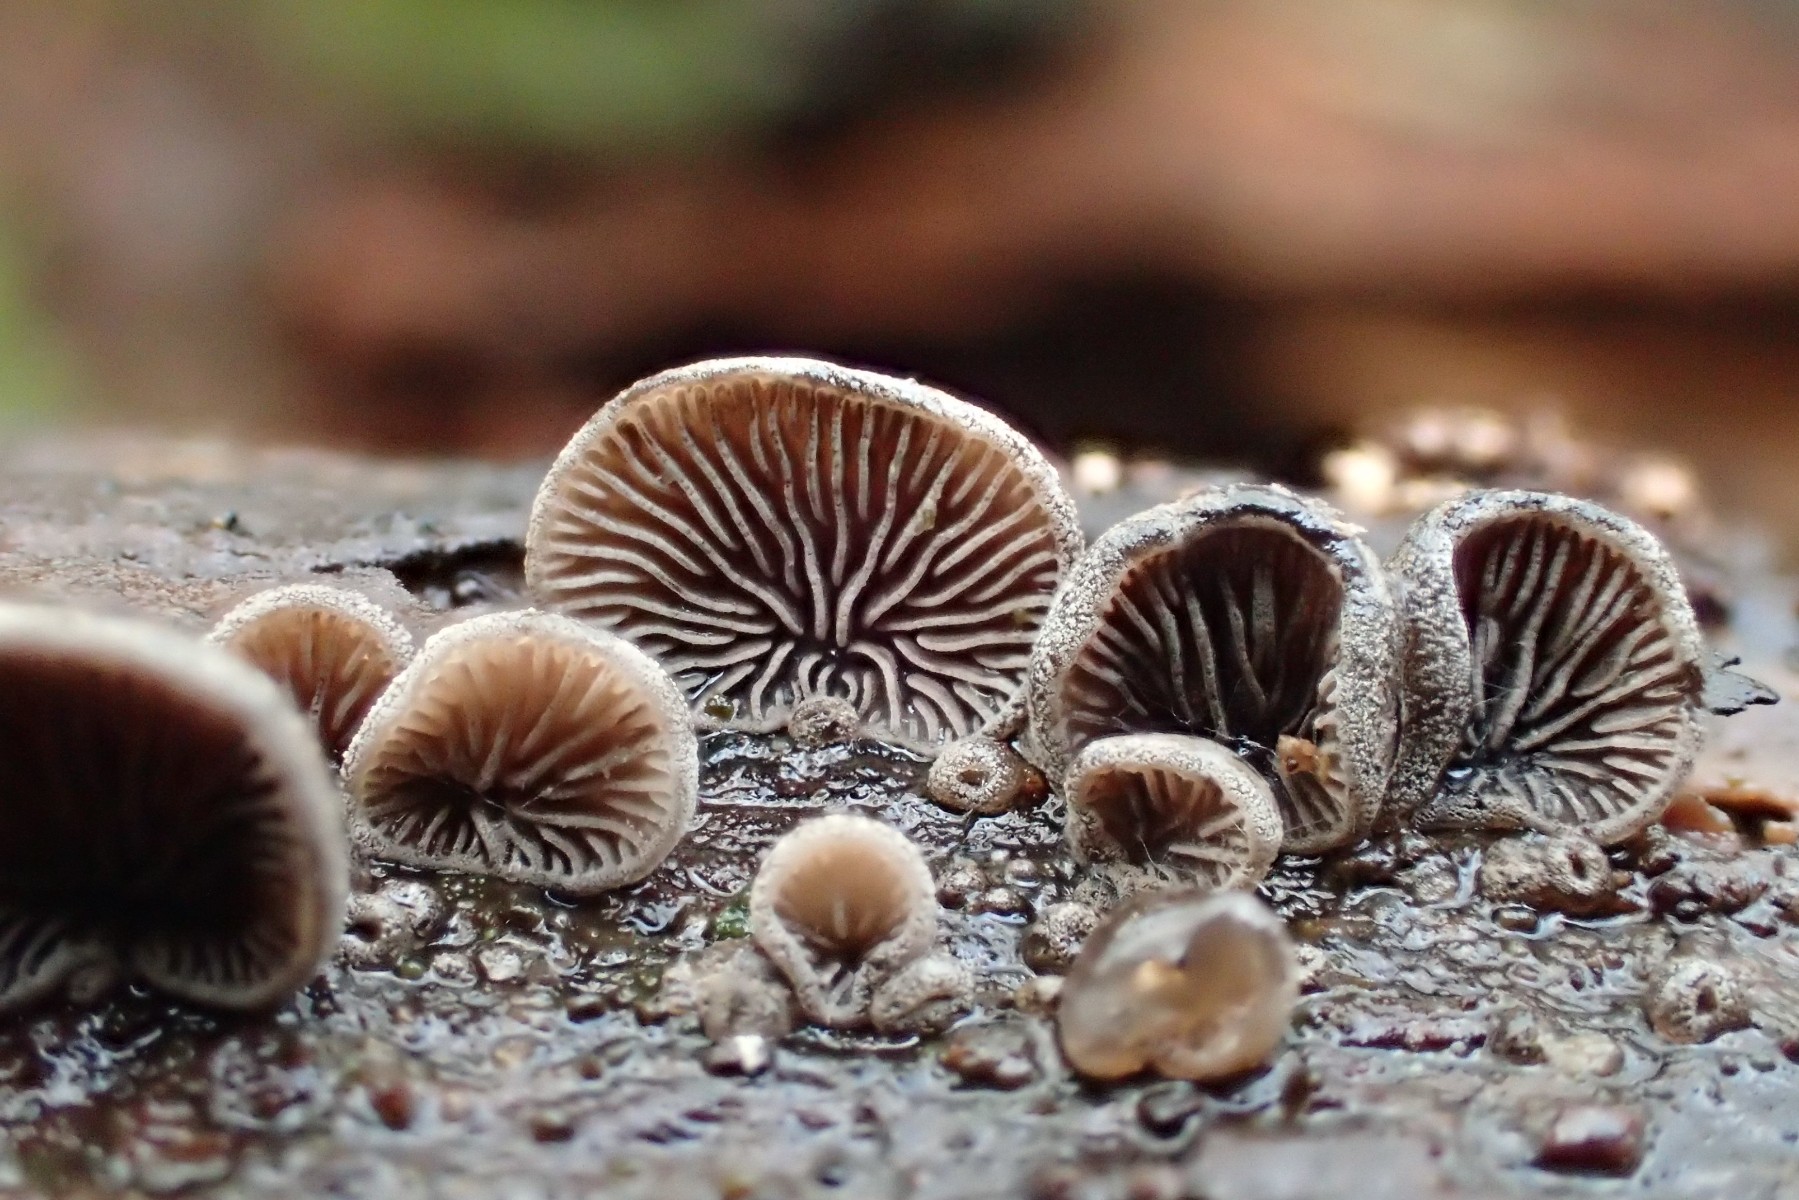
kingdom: Fungi
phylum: Basidiomycota
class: Agaricomycetes
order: Agaricales
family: Pleurotaceae
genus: Resupinatus
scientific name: Resupinatus trichotis
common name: mørkfiltet barkhat
